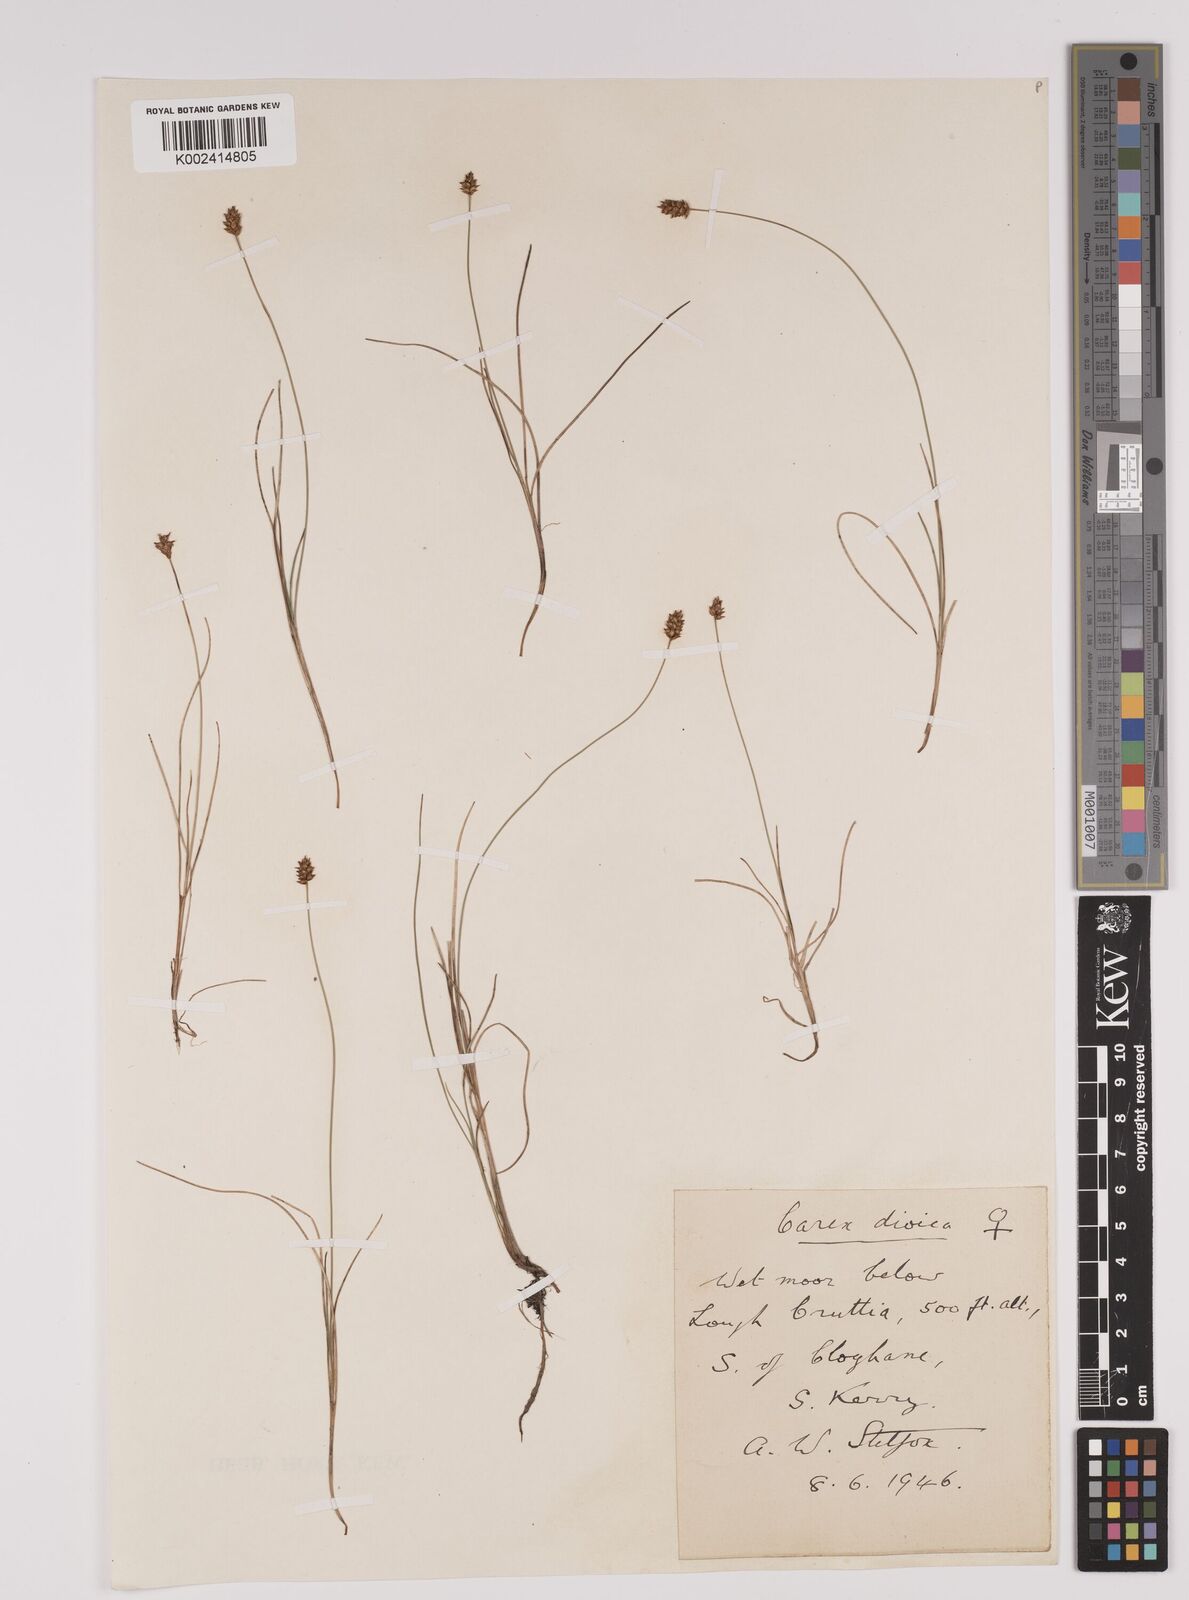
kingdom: Plantae
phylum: Tracheophyta
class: Liliopsida
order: Poales
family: Cyperaceae
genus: Carex
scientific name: Carex dioica
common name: Dioecious sedge
